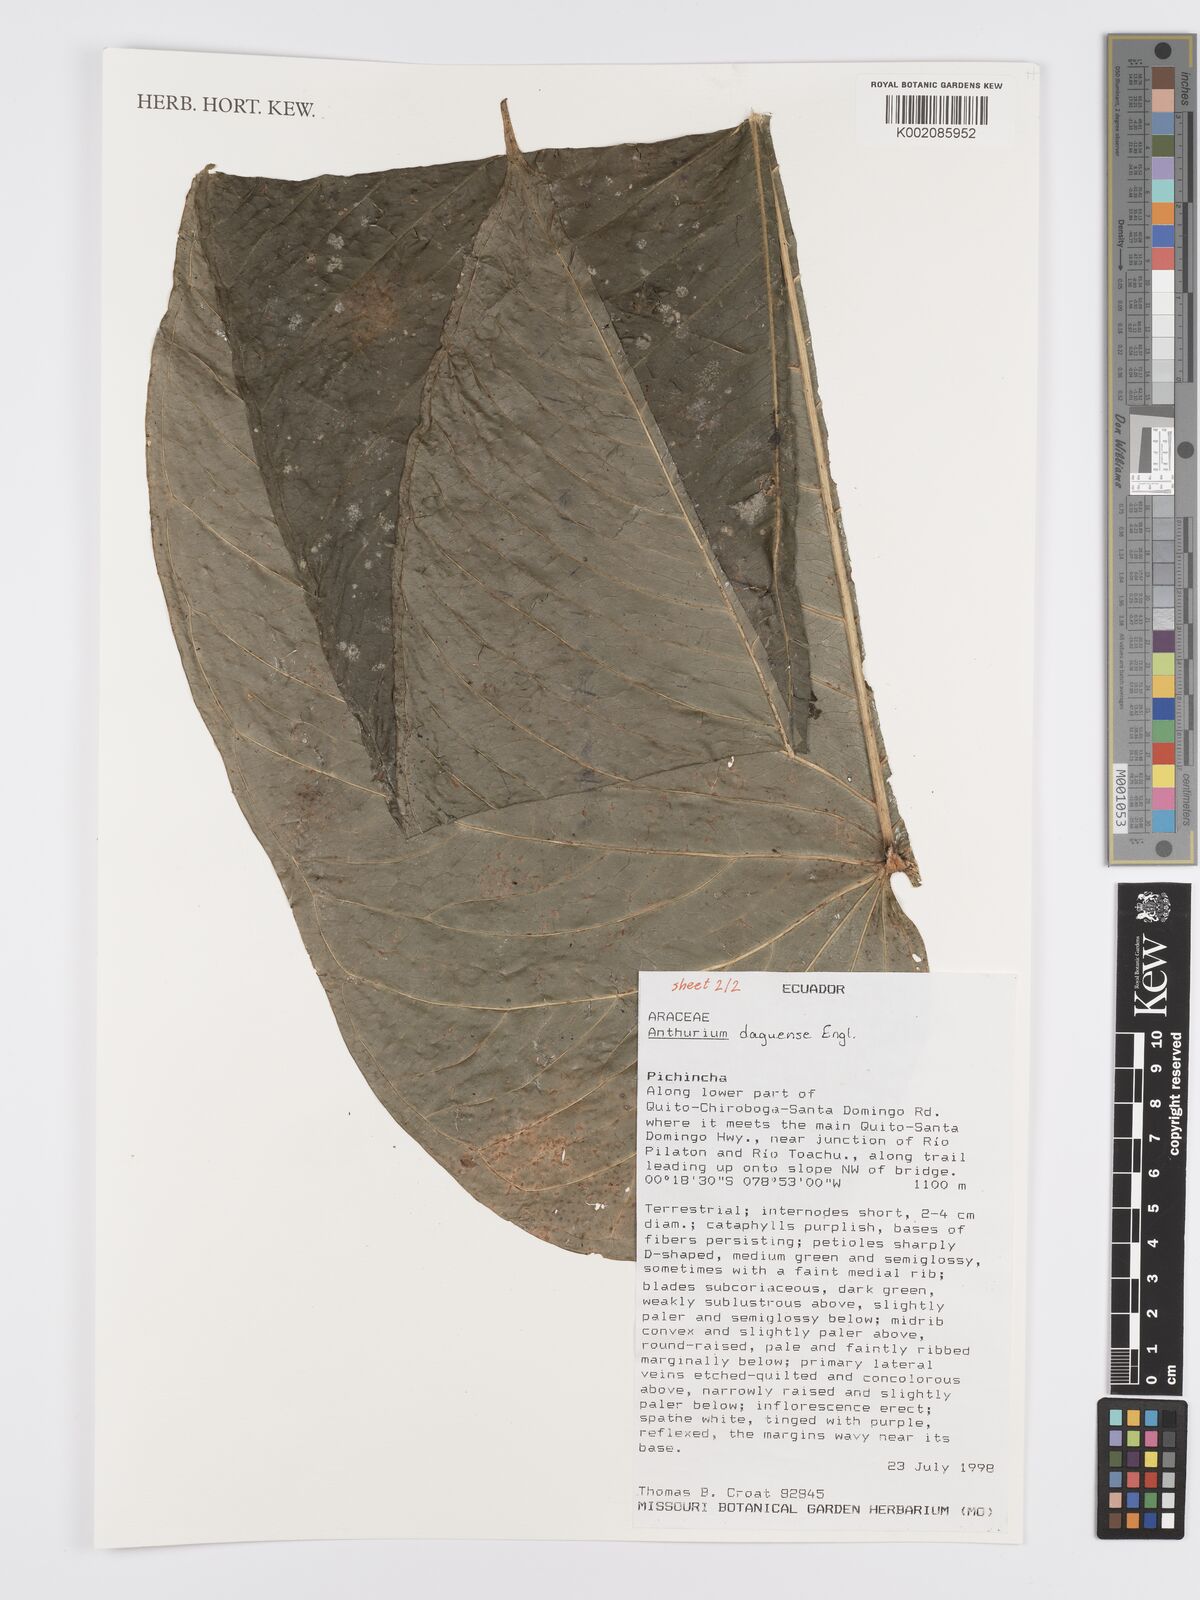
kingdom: Plantae
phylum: Tracheophyta
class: Liliopsida
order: Alismatales
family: Araceae
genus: Anthurium
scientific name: Anthurium daguense
